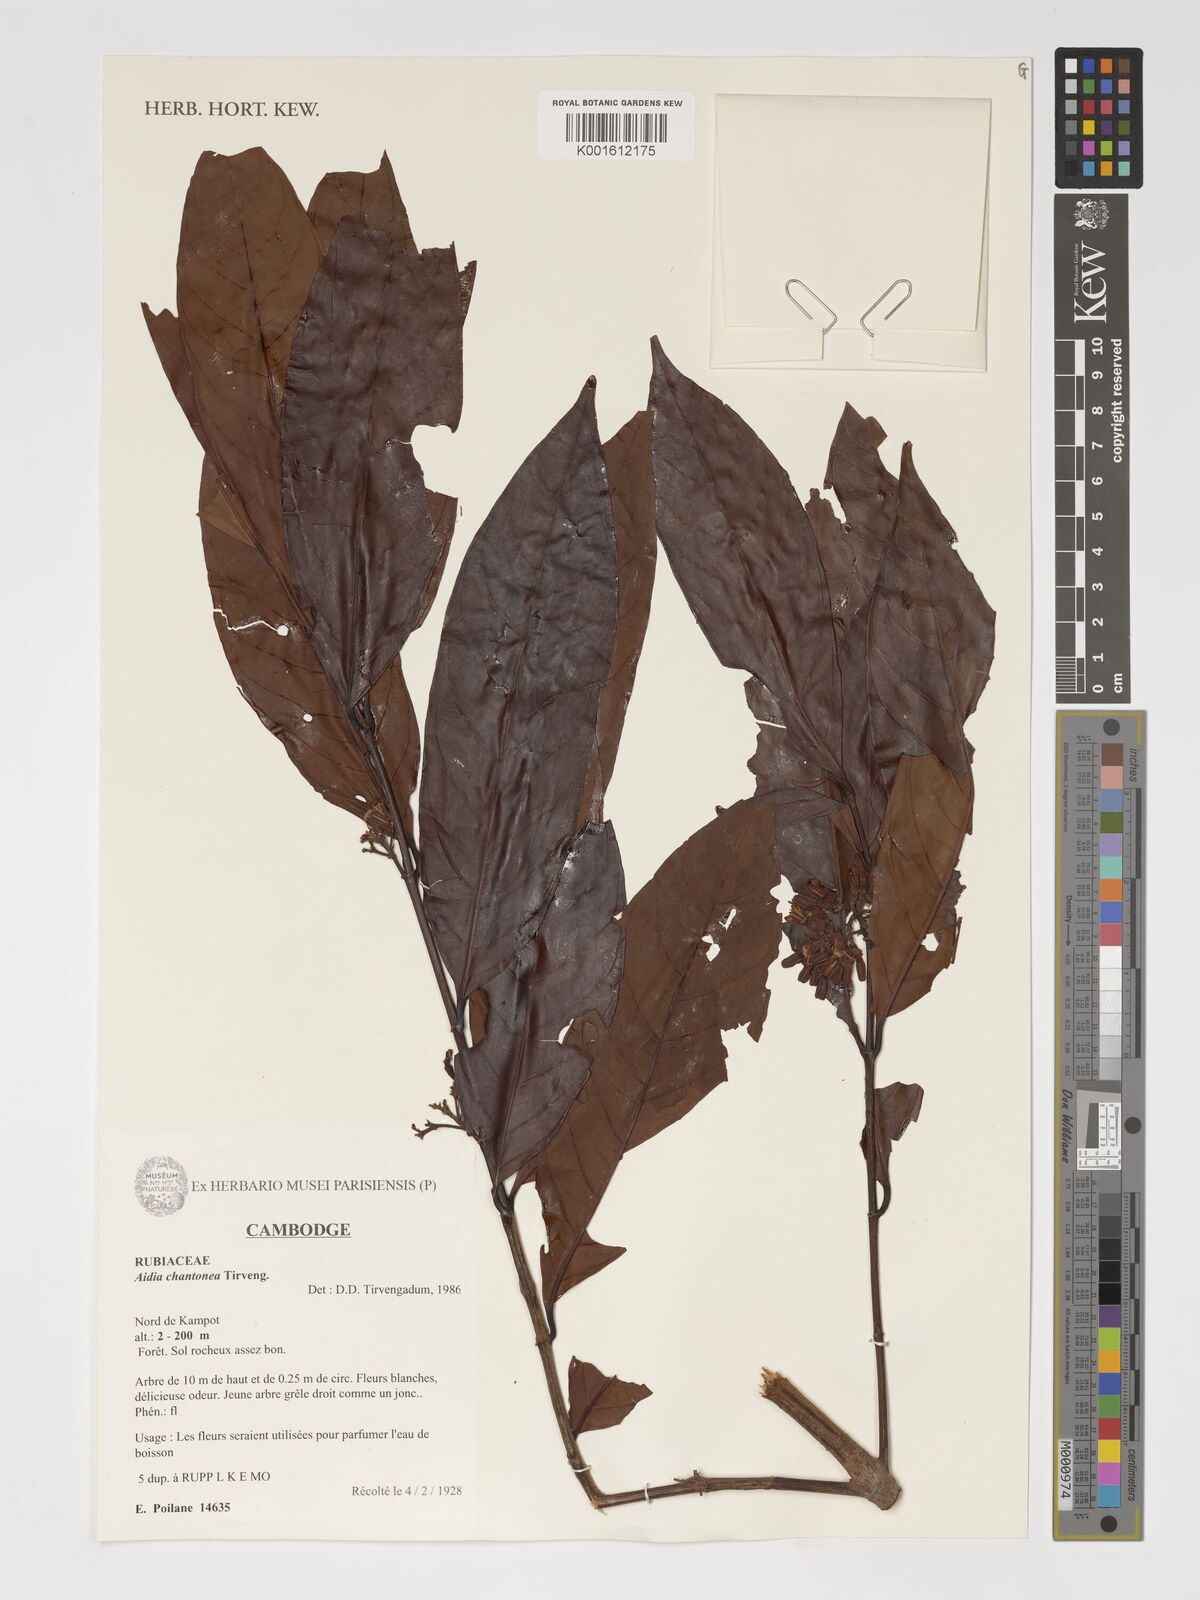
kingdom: Plantae
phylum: Tracheophyta
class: Magnoliopsida
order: Gentianales
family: Rubiaceae
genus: Aidia
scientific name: Aidia chantonea
